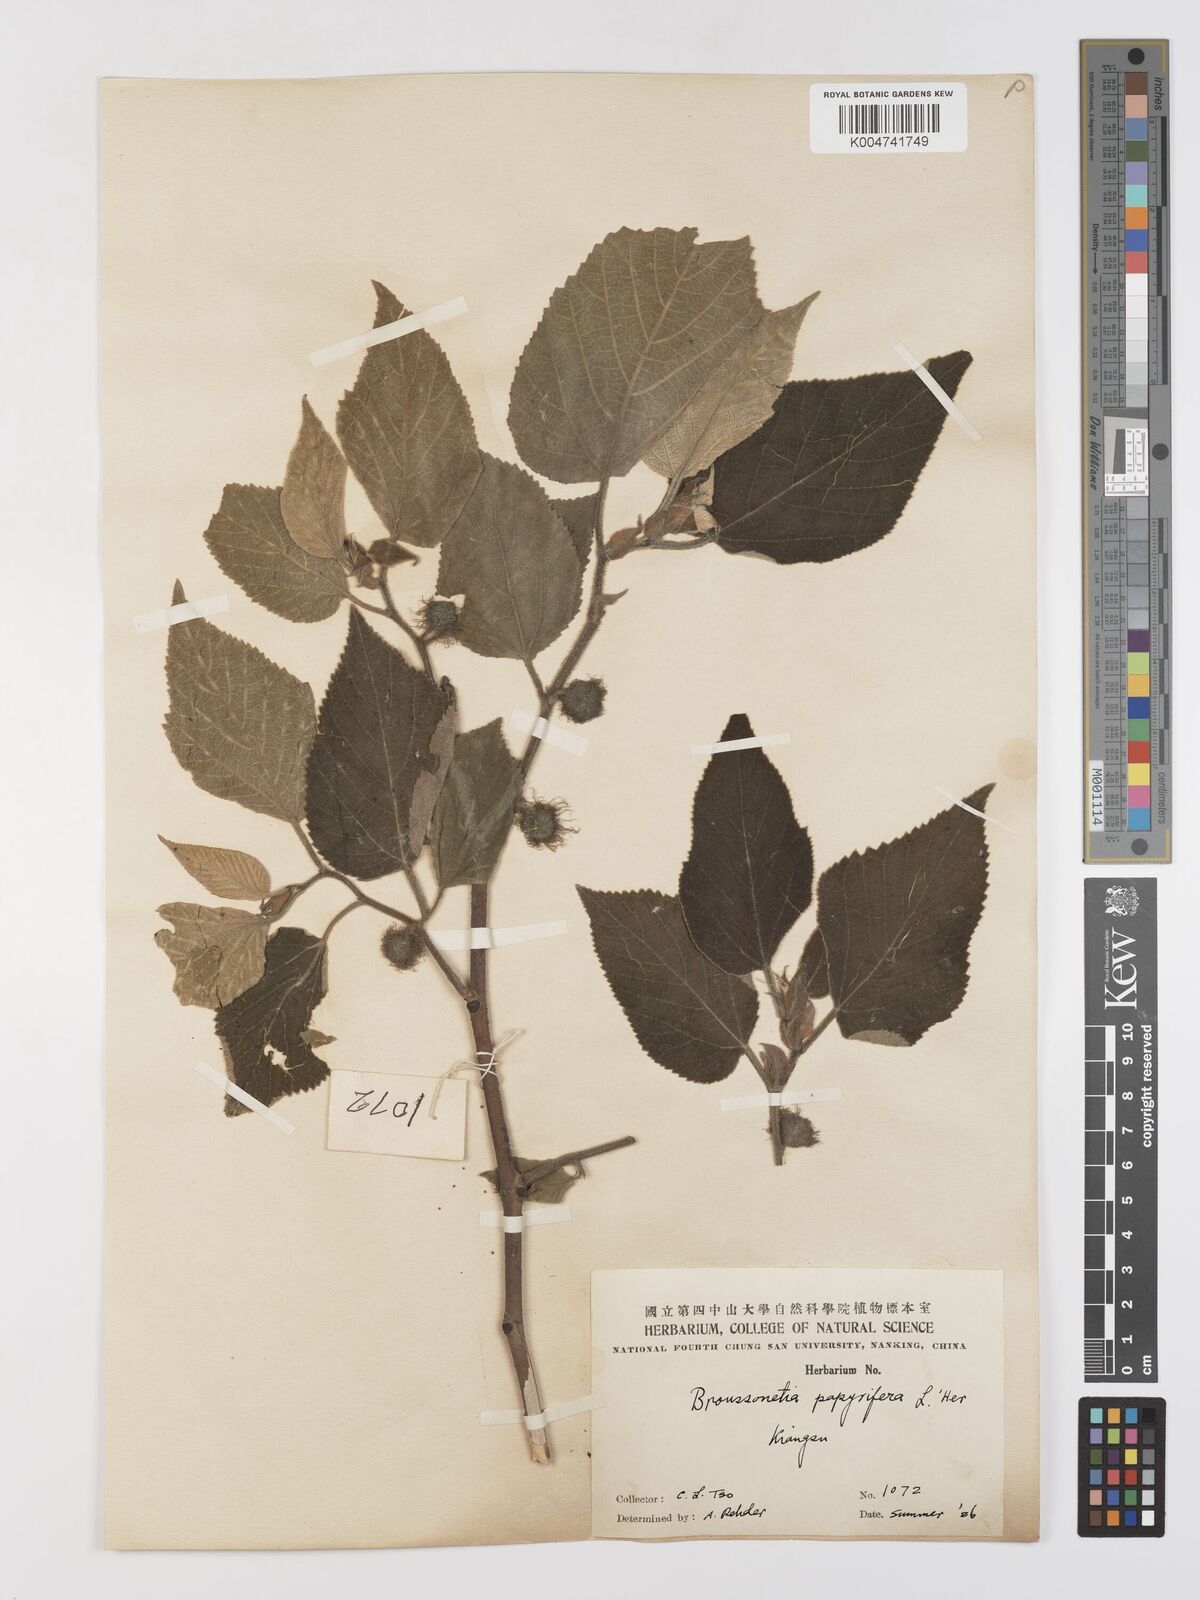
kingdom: Plantae
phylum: Tracheophyta
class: Magnoliopsida
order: Rosales
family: Moraceae
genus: Broussonetia
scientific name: Broussonetia
